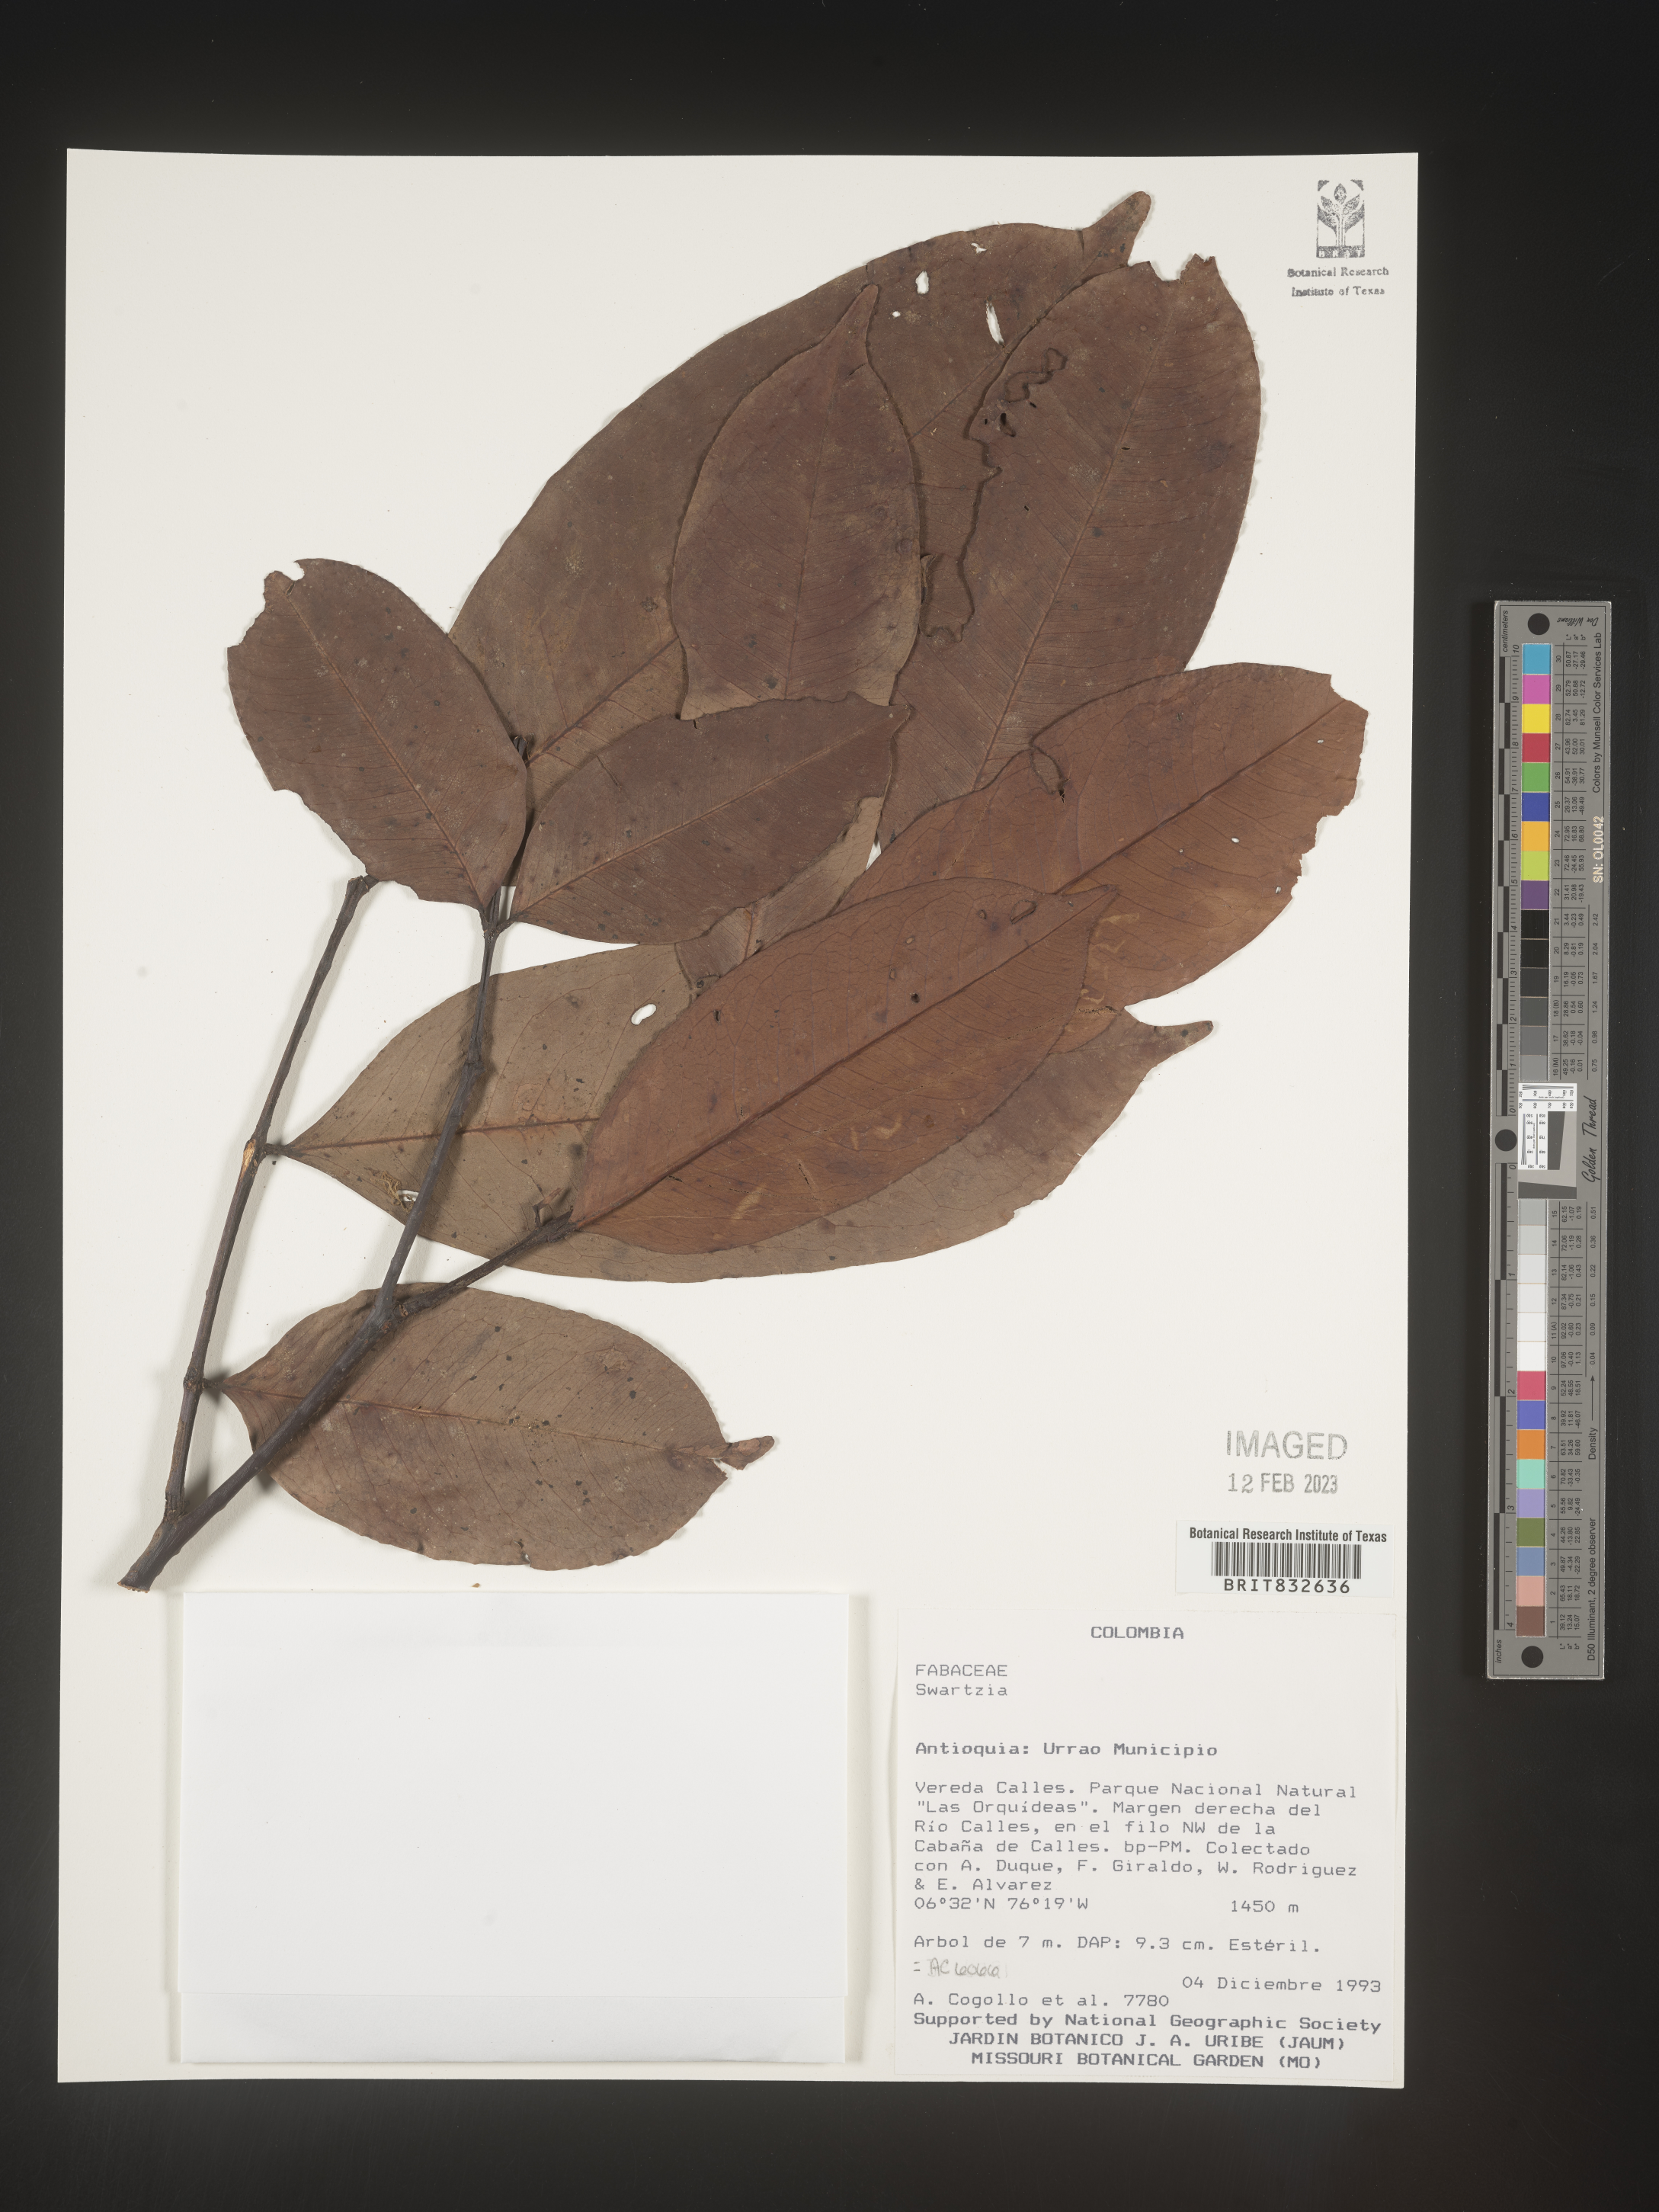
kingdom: Plantae
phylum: Tracheophyta
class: Magnoliopsida
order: Fabales
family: Fabaceae
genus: Swartzia
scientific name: Swartzia
